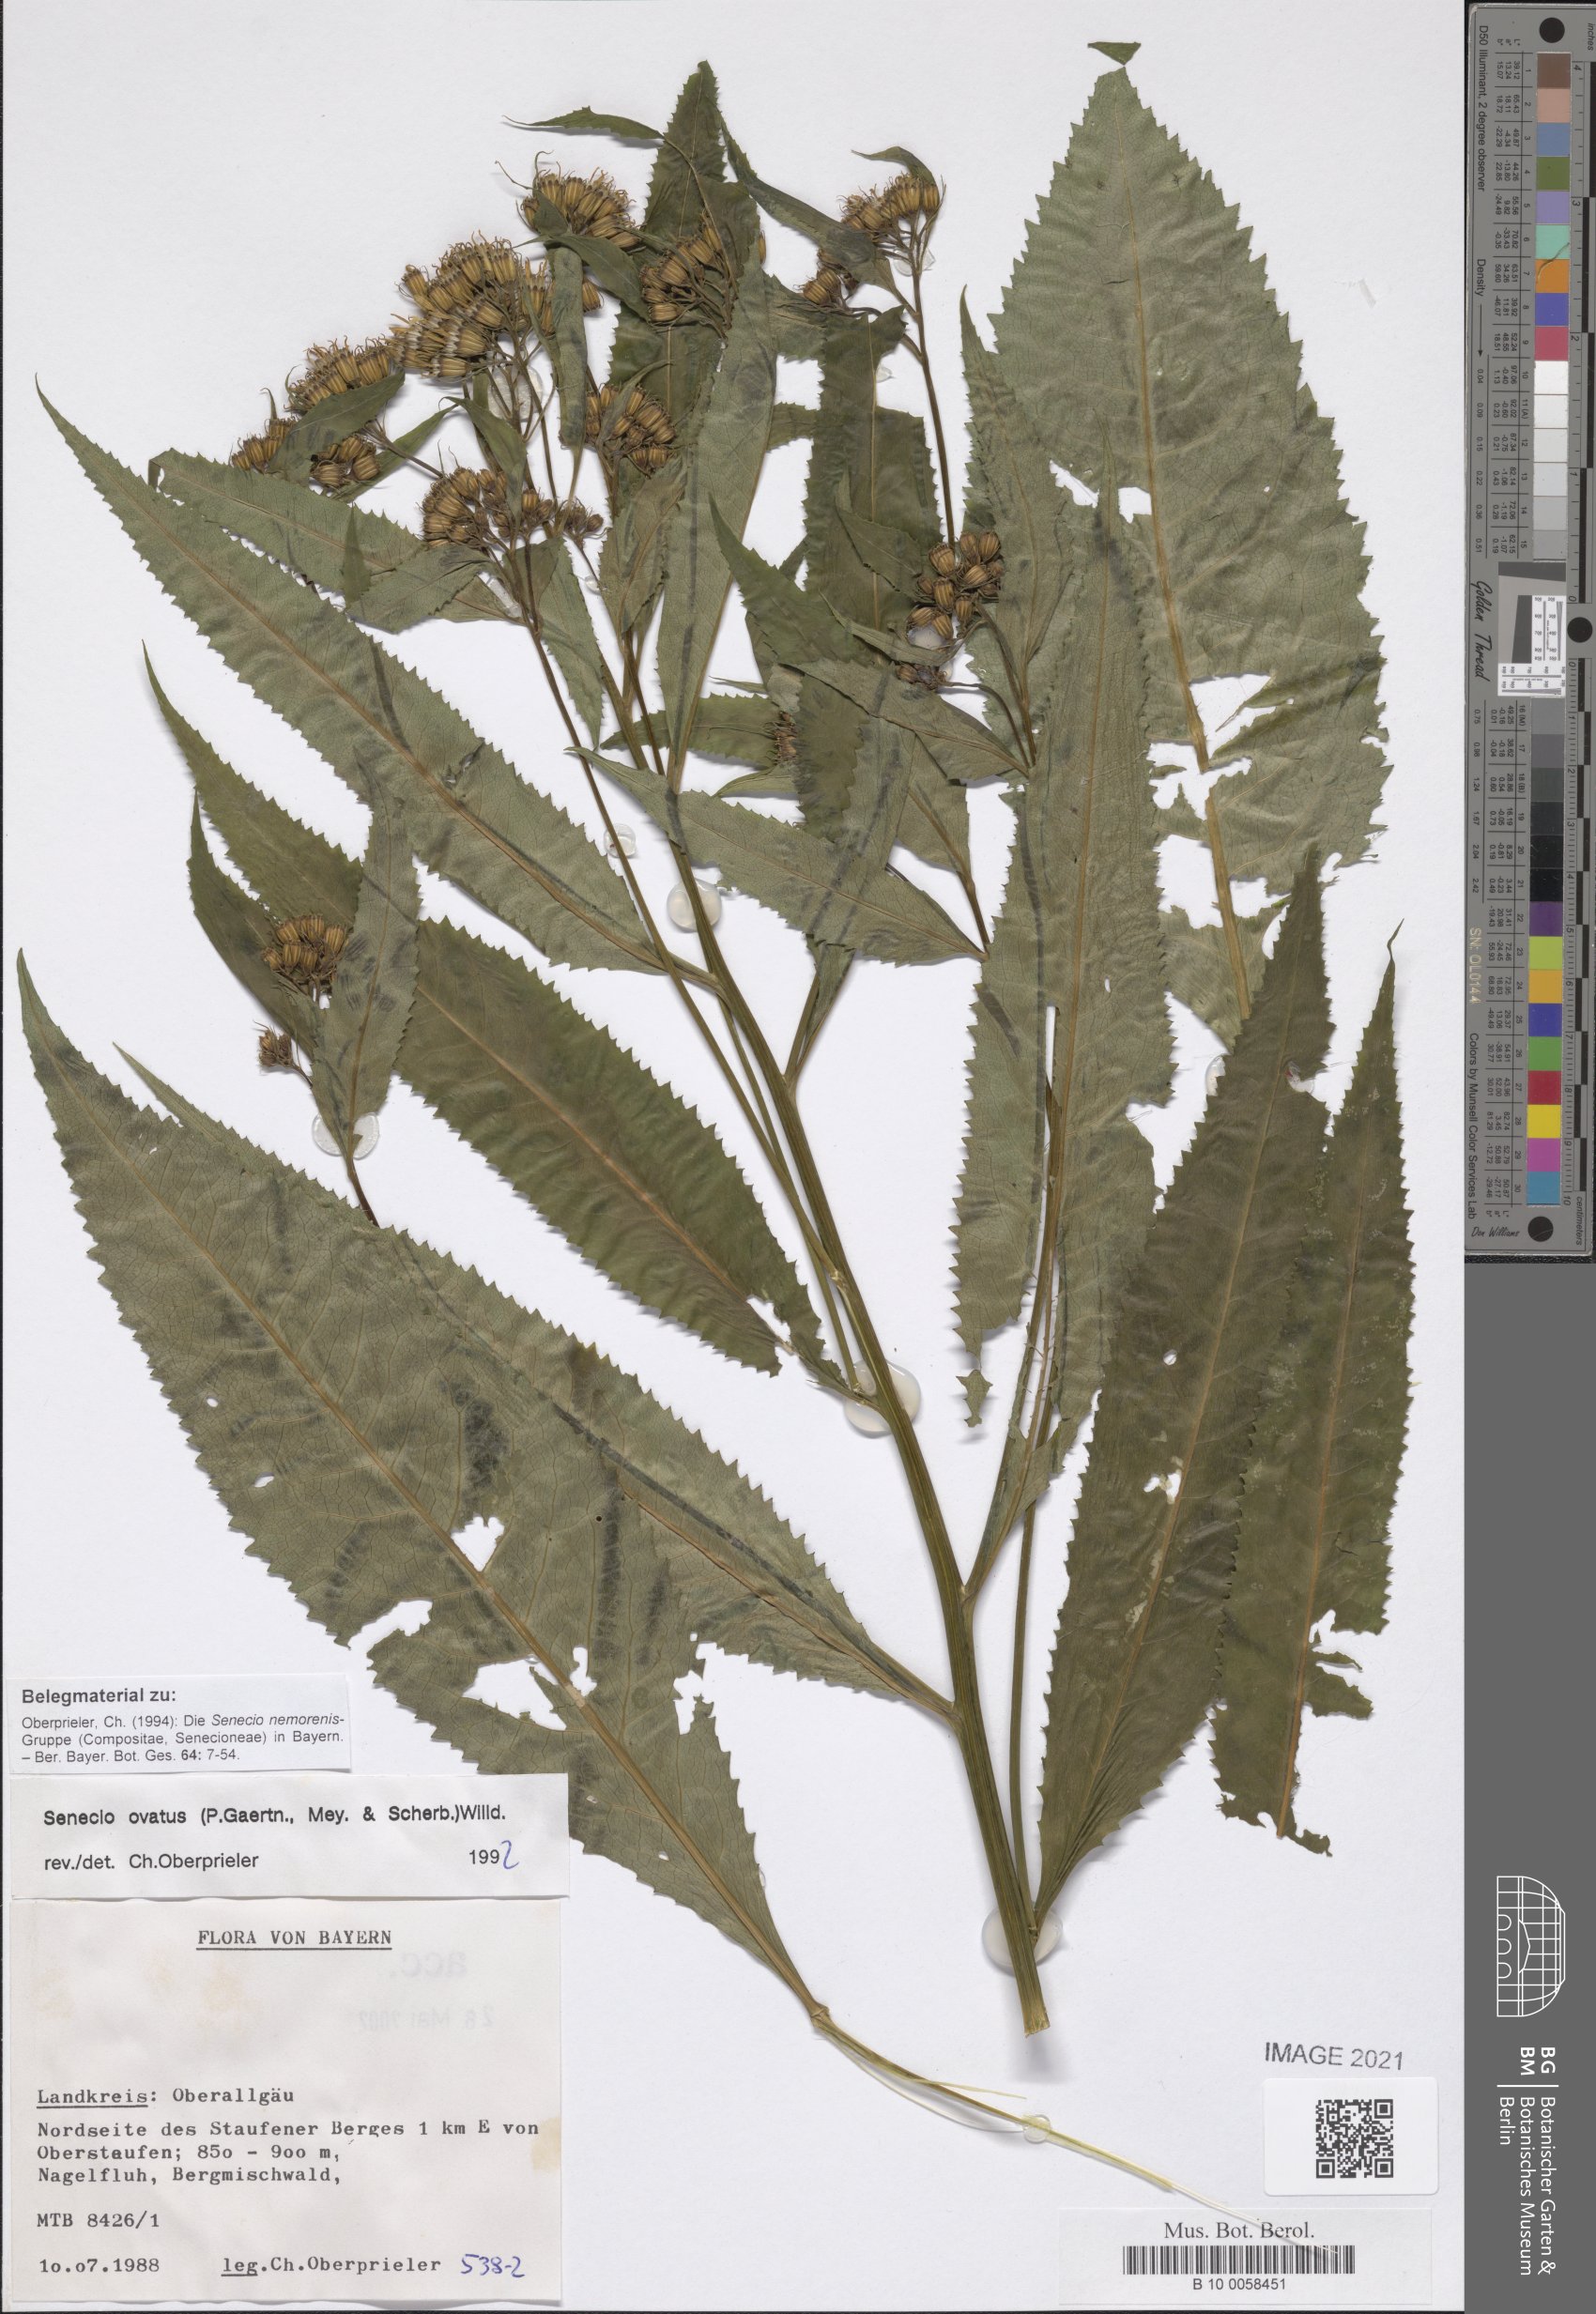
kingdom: Plantae
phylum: Tracheophyta
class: Magnoliopsida
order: Asterales
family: Asteraceae
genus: Senecio
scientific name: Senecio ovatus
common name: Wood ragwort
